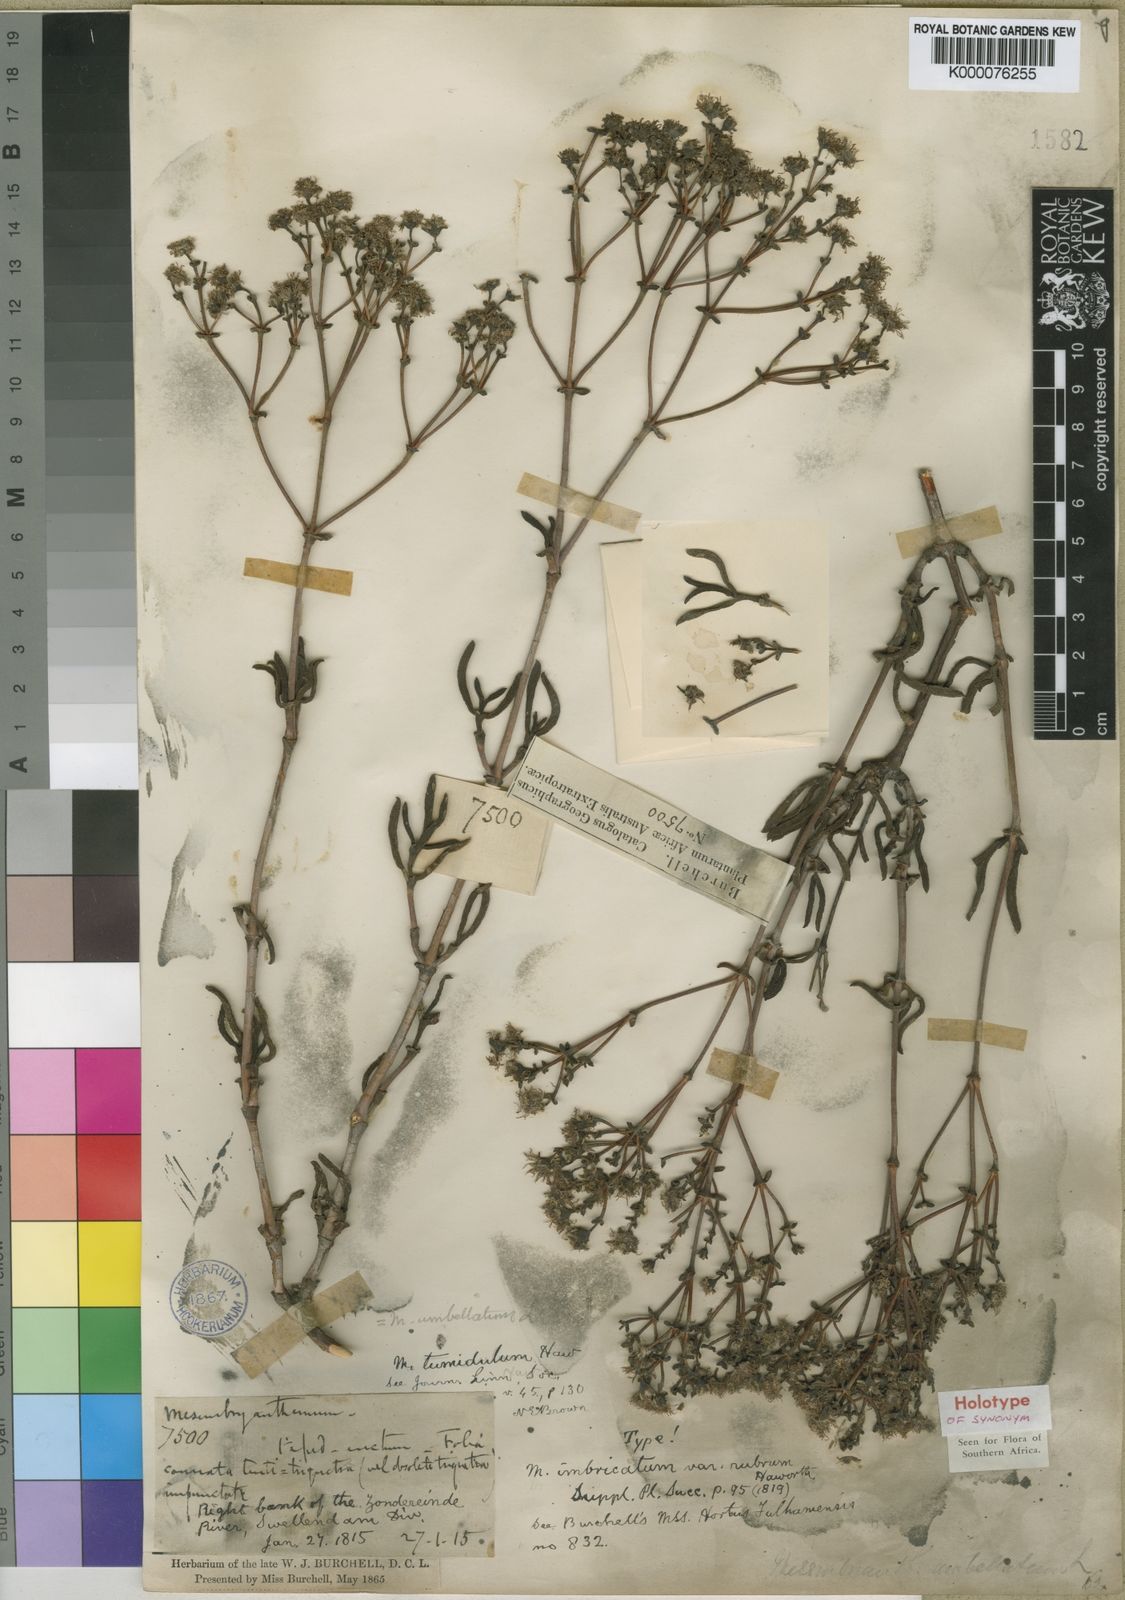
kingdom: Plantae
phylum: Tracheophyta
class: Magnoliopsida
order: Caryophyllales
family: Aizoaceae
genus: Ruschia
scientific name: Ruschia tumidula
